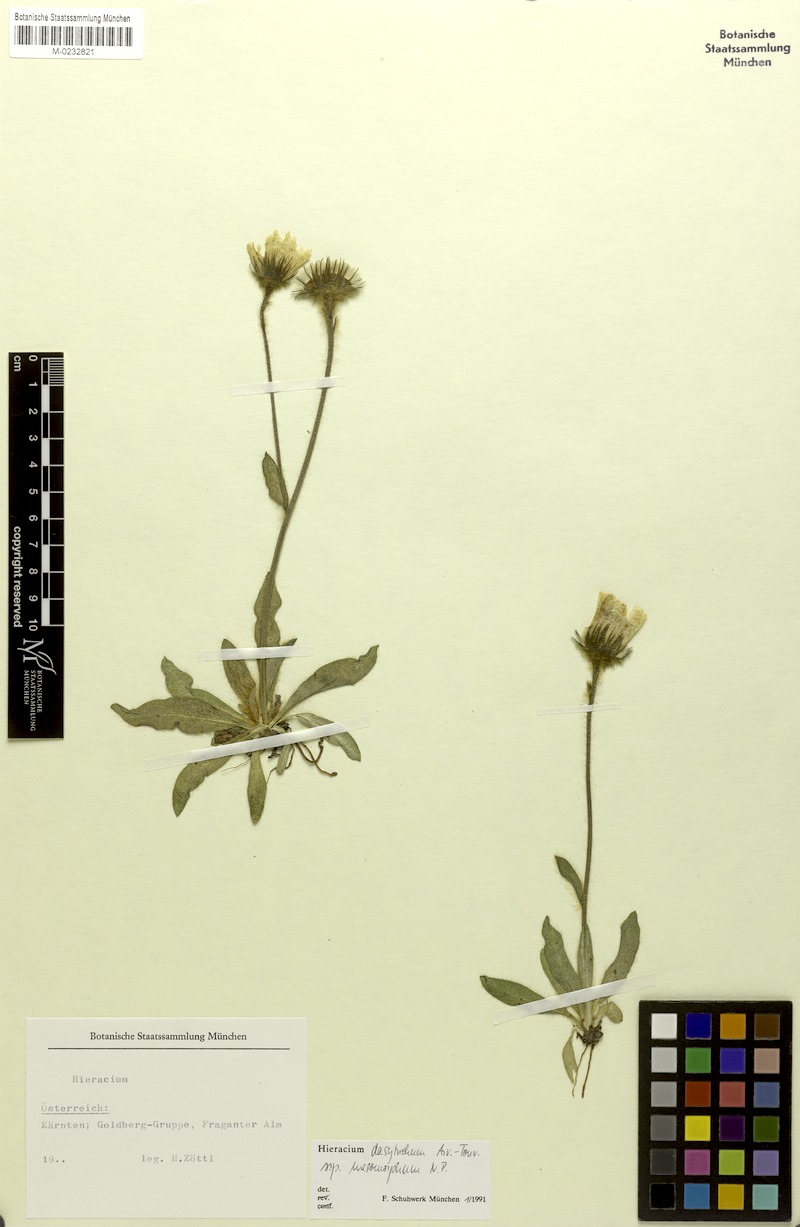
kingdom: Plantae
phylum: Tracheophyta
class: Magnoliopsida
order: Asterales
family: Asteraceae
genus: Hieracium
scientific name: Hieracium dasytrichum
